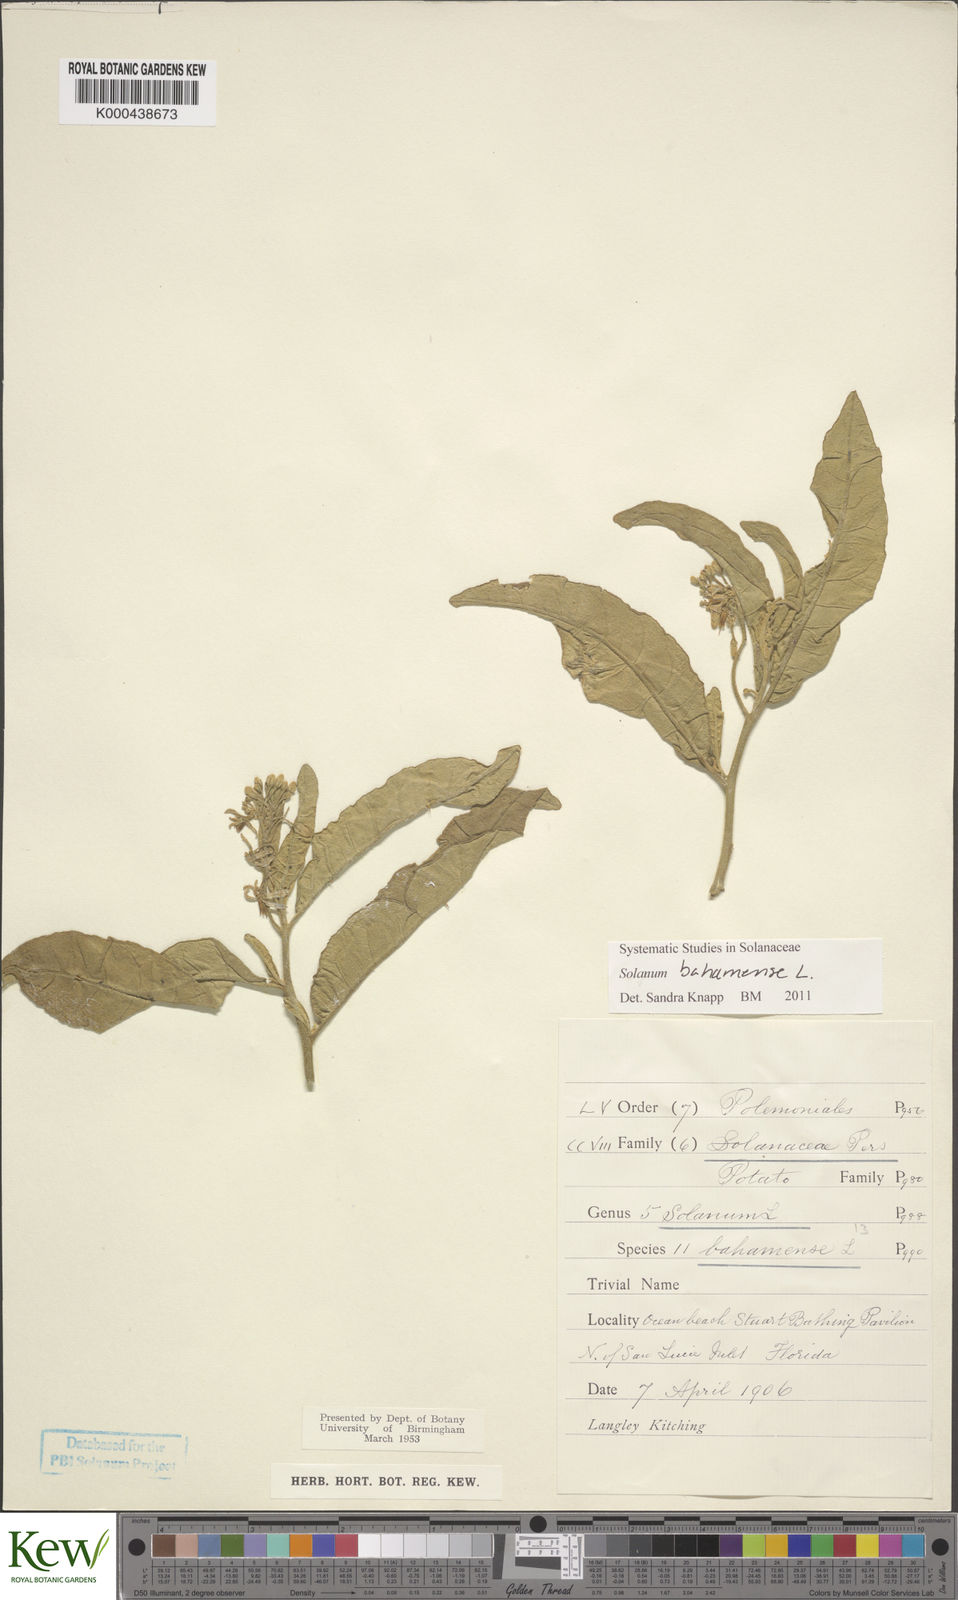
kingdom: Plantae
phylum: Tracheophyta
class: Magnoliopsida
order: Solanales
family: Solanaceae
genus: Solanum
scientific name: Solanum bahamense
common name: Canker-berry
